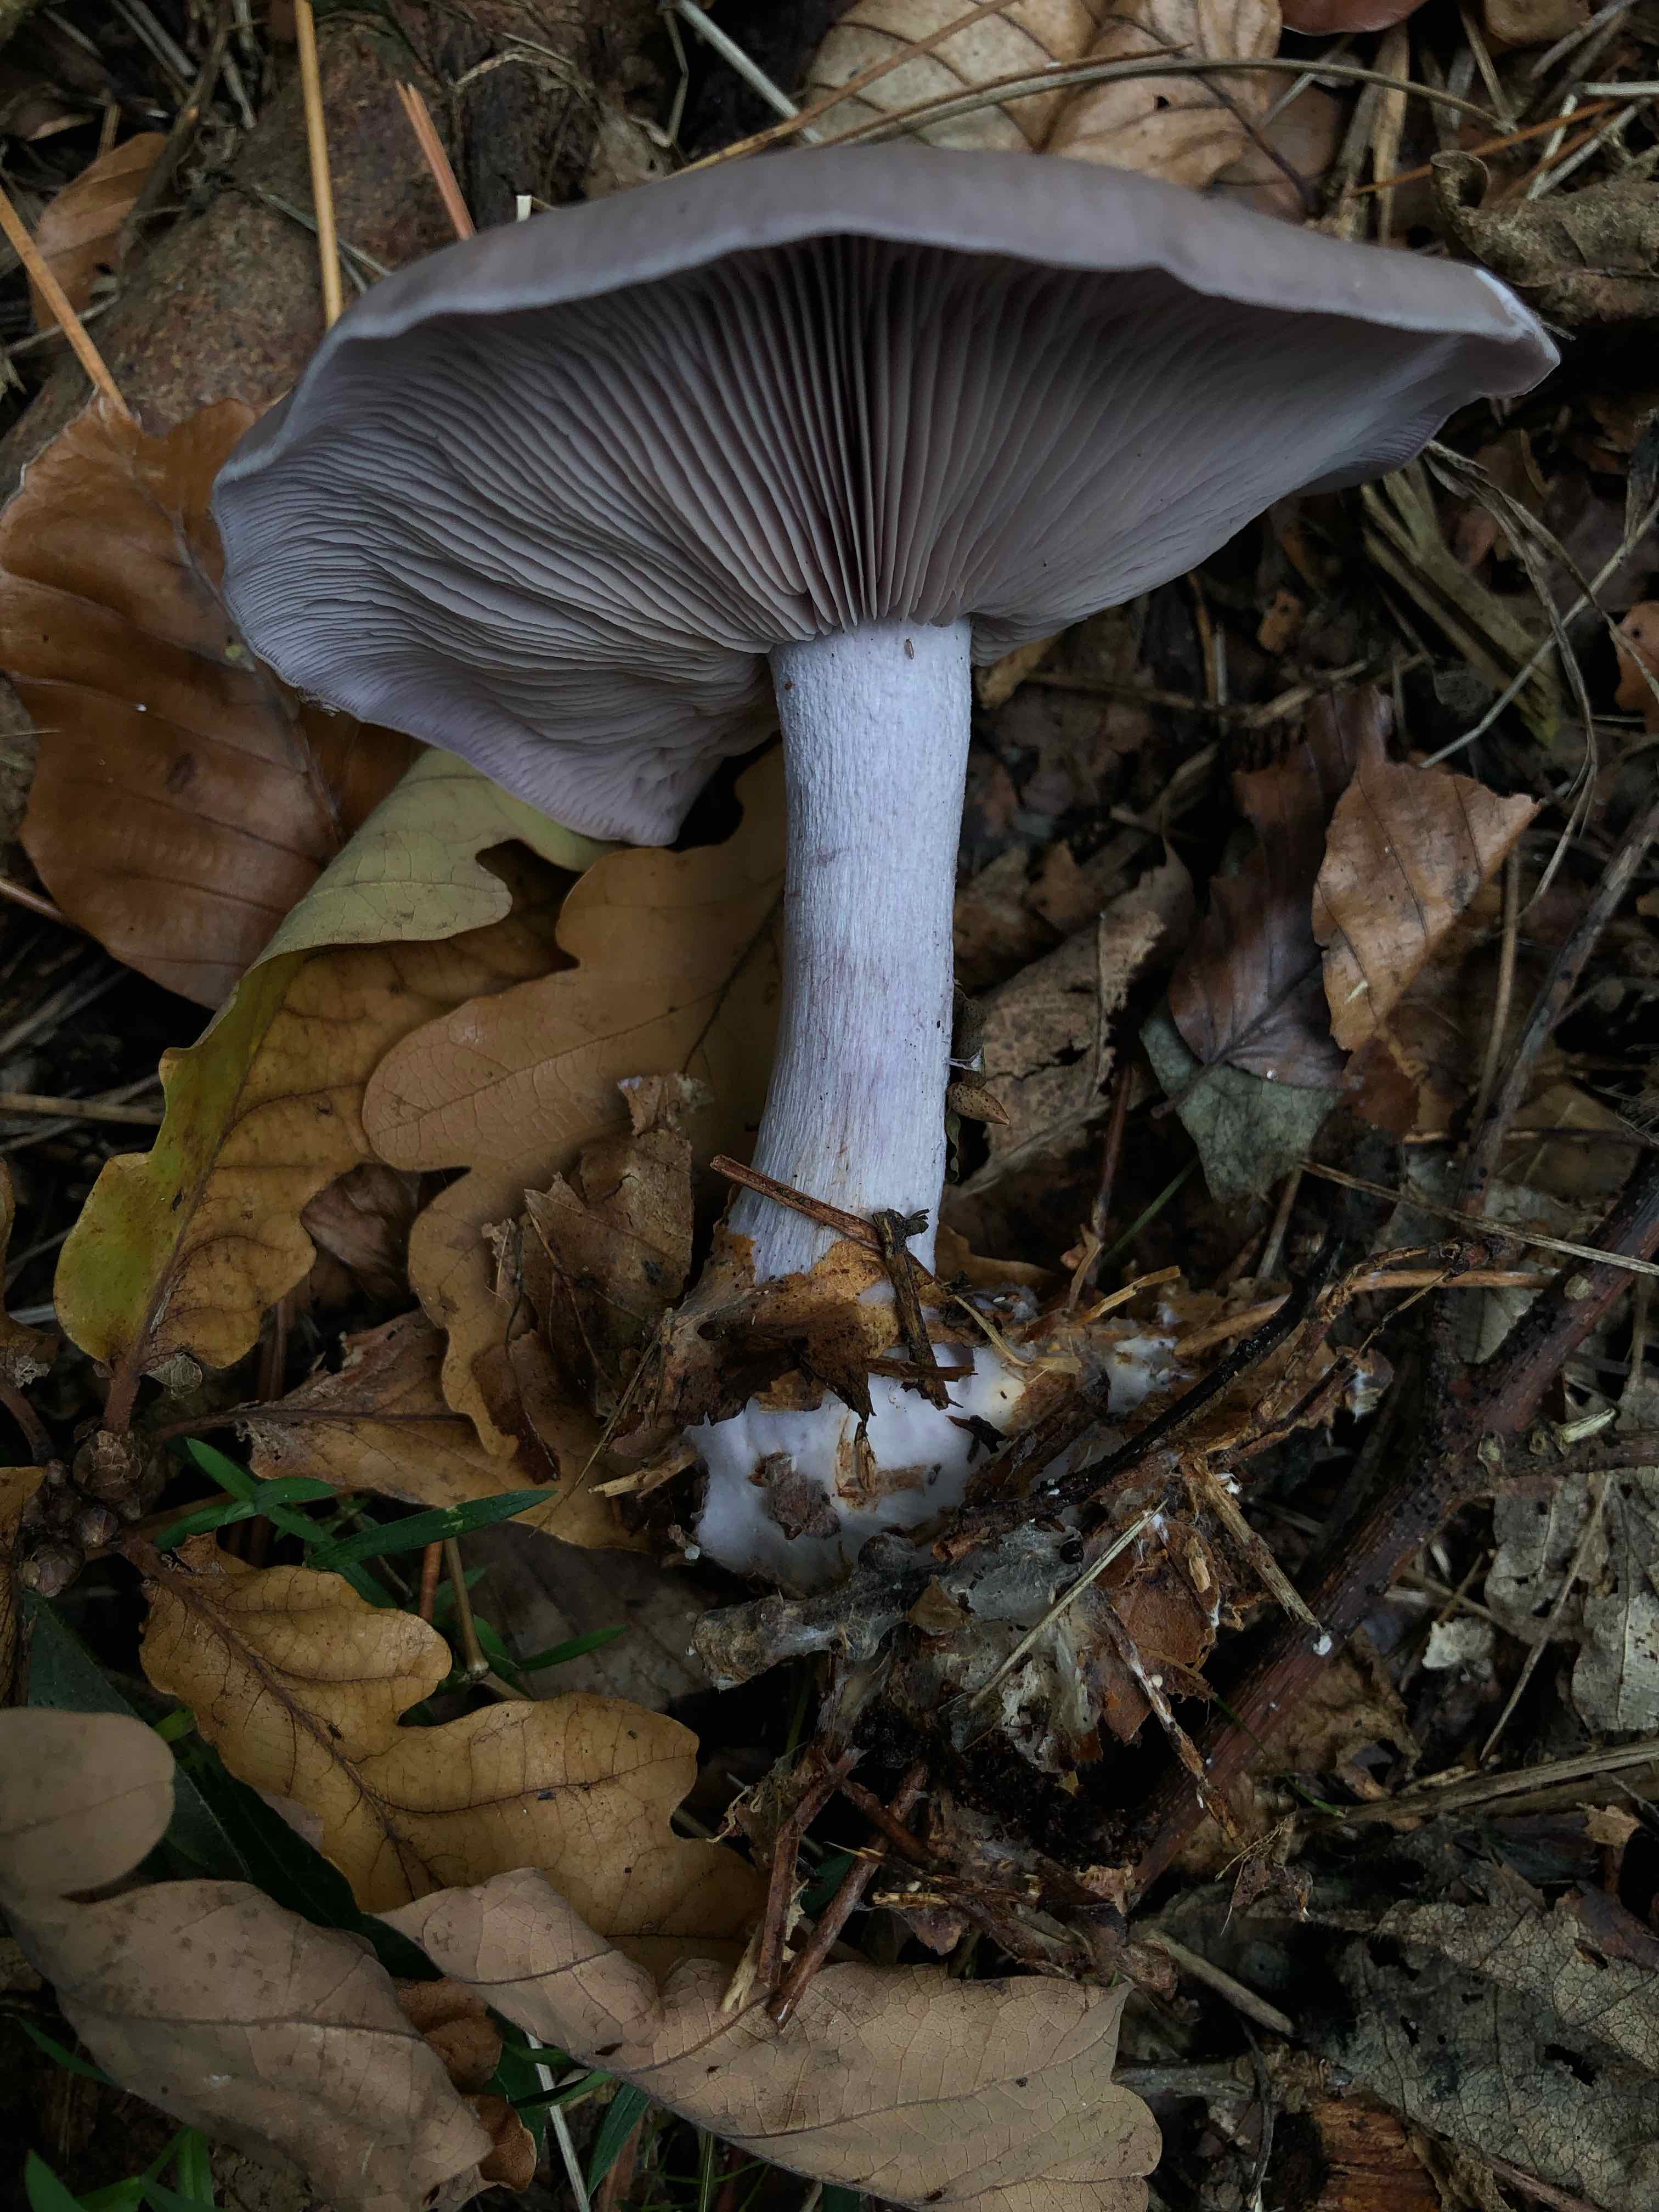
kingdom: Fungi
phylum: Basidiomycota
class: Agaricomycetes
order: Agaricales
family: Tricholomataceae
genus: Lepista
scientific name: Lepista nuda
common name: violet hekseringshat
